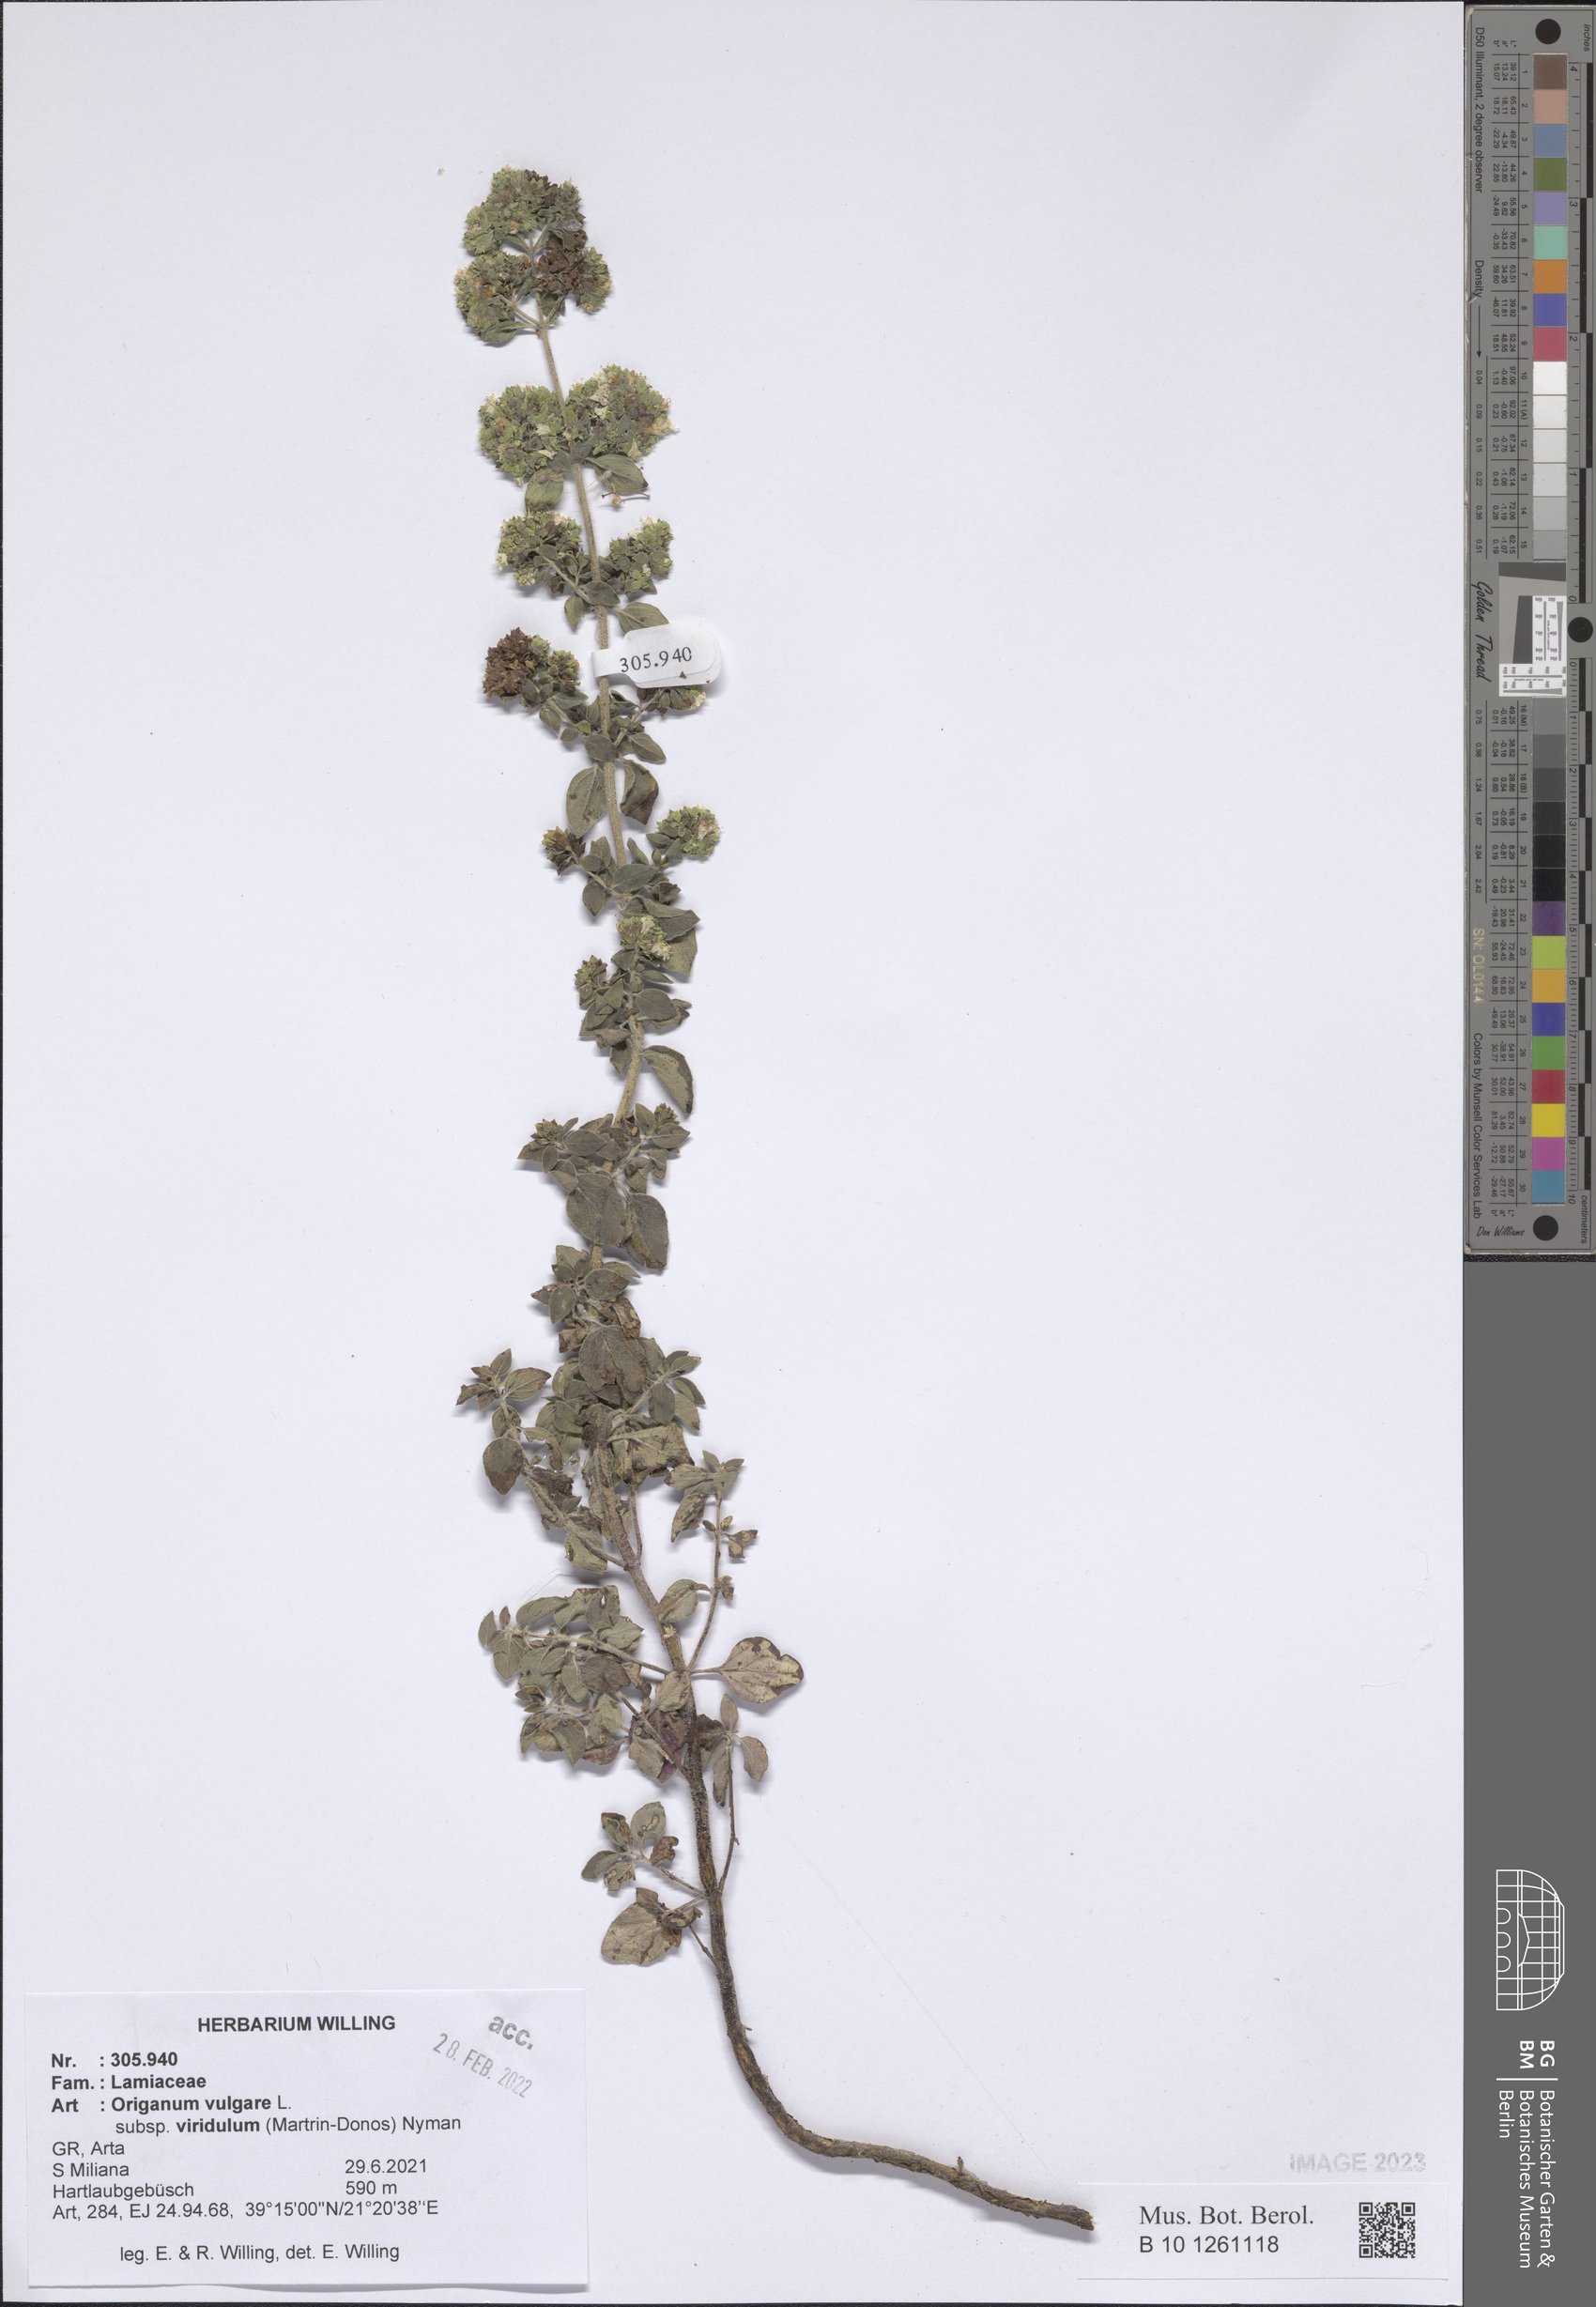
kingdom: Plantae
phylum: Tracheophyta
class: Magnoliopsida
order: Lamiales
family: Lamiaceae
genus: Origanum
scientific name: Origanum vulgare
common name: Wild marjoram
